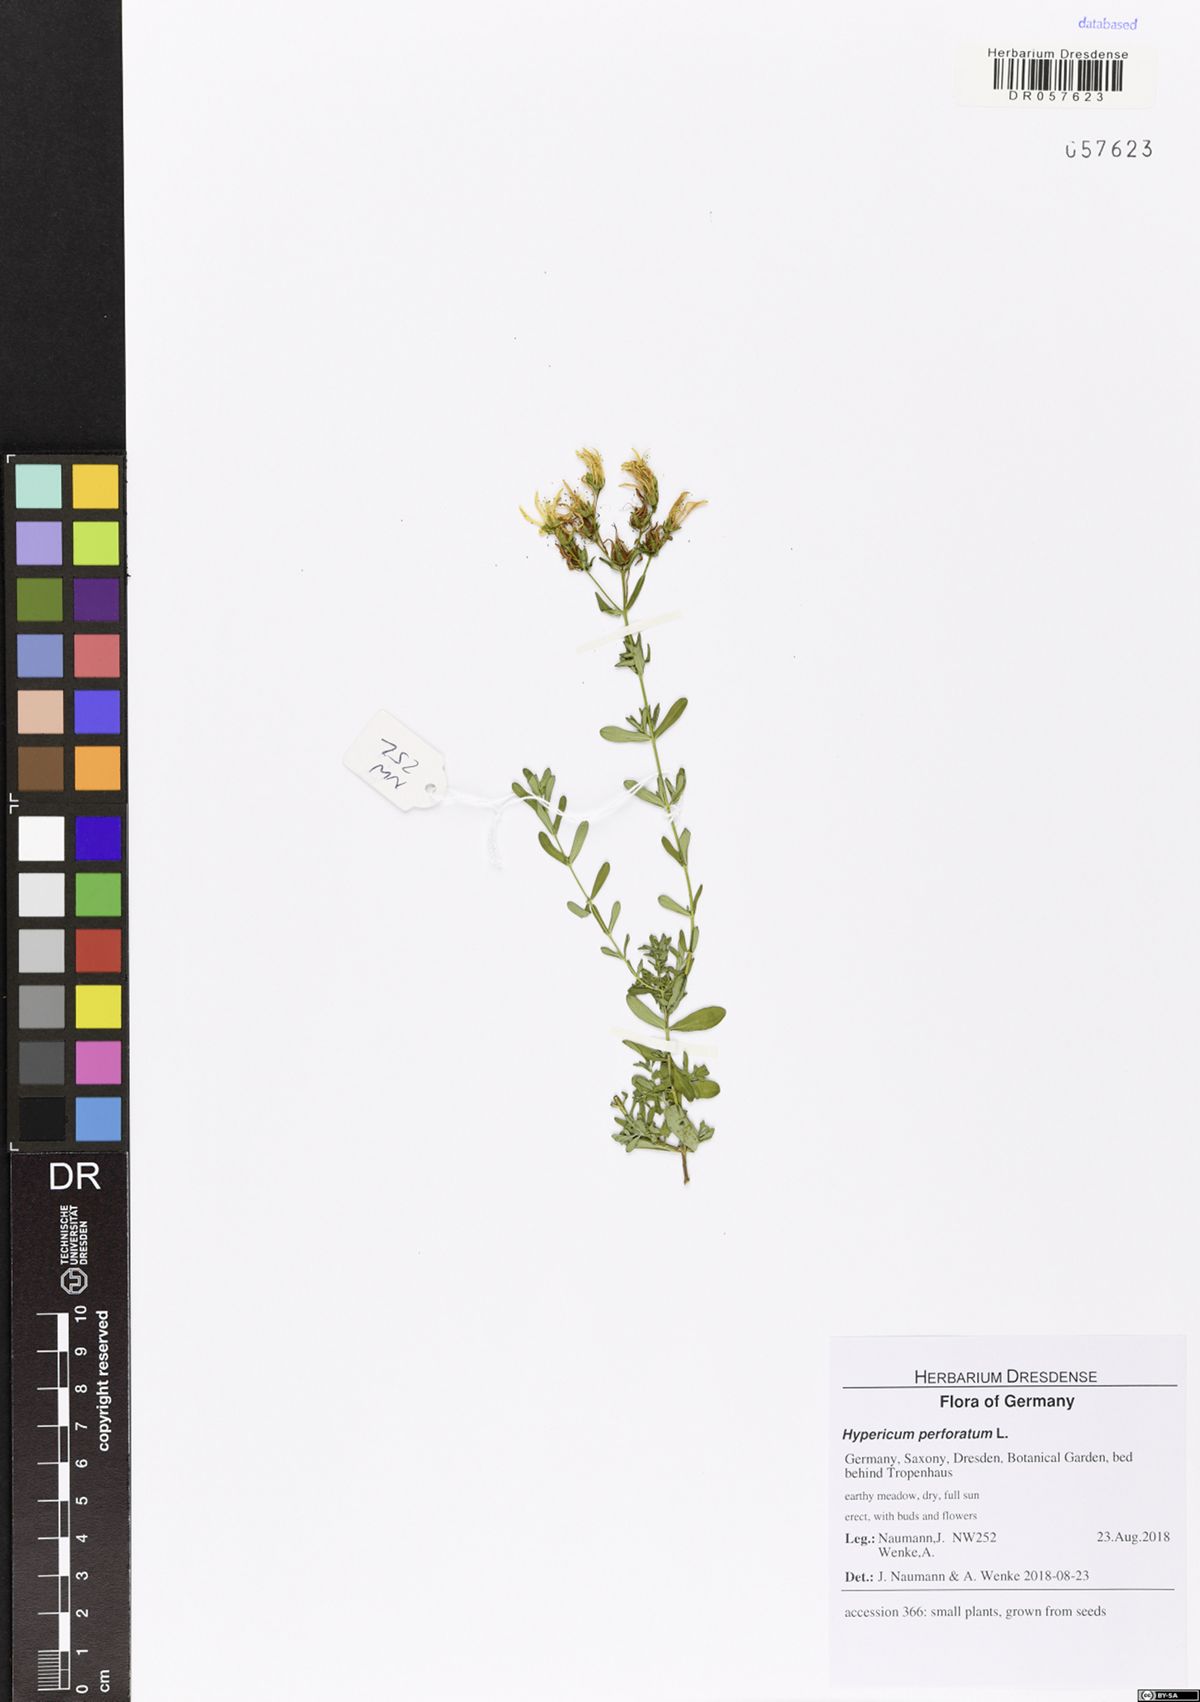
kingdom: Plantae
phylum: Tracheophyta
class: Magnoliopsida
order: Malpighiales
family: Hypericaceae
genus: Hypericum
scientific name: Hypericum perforatum
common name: Common st. johnswort
